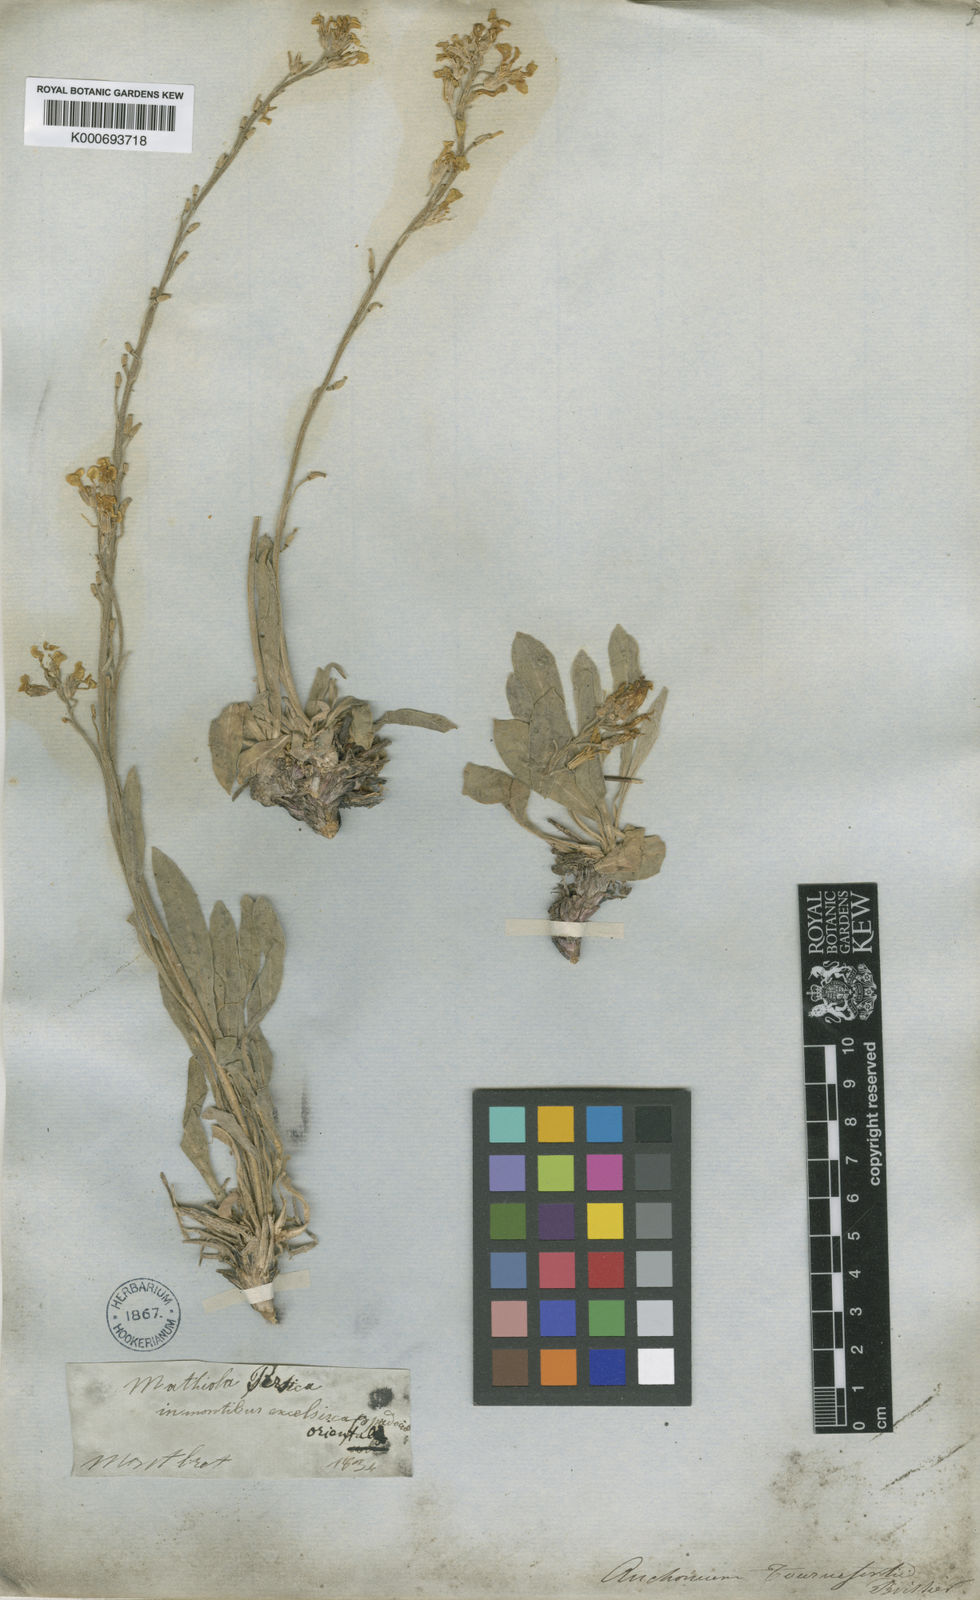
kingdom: Plantae
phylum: Tracheophyta
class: Magnoliopsida
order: Brassicales
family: Brassicaceae
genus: Anchonium
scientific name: Anchonium elichrysifolium
